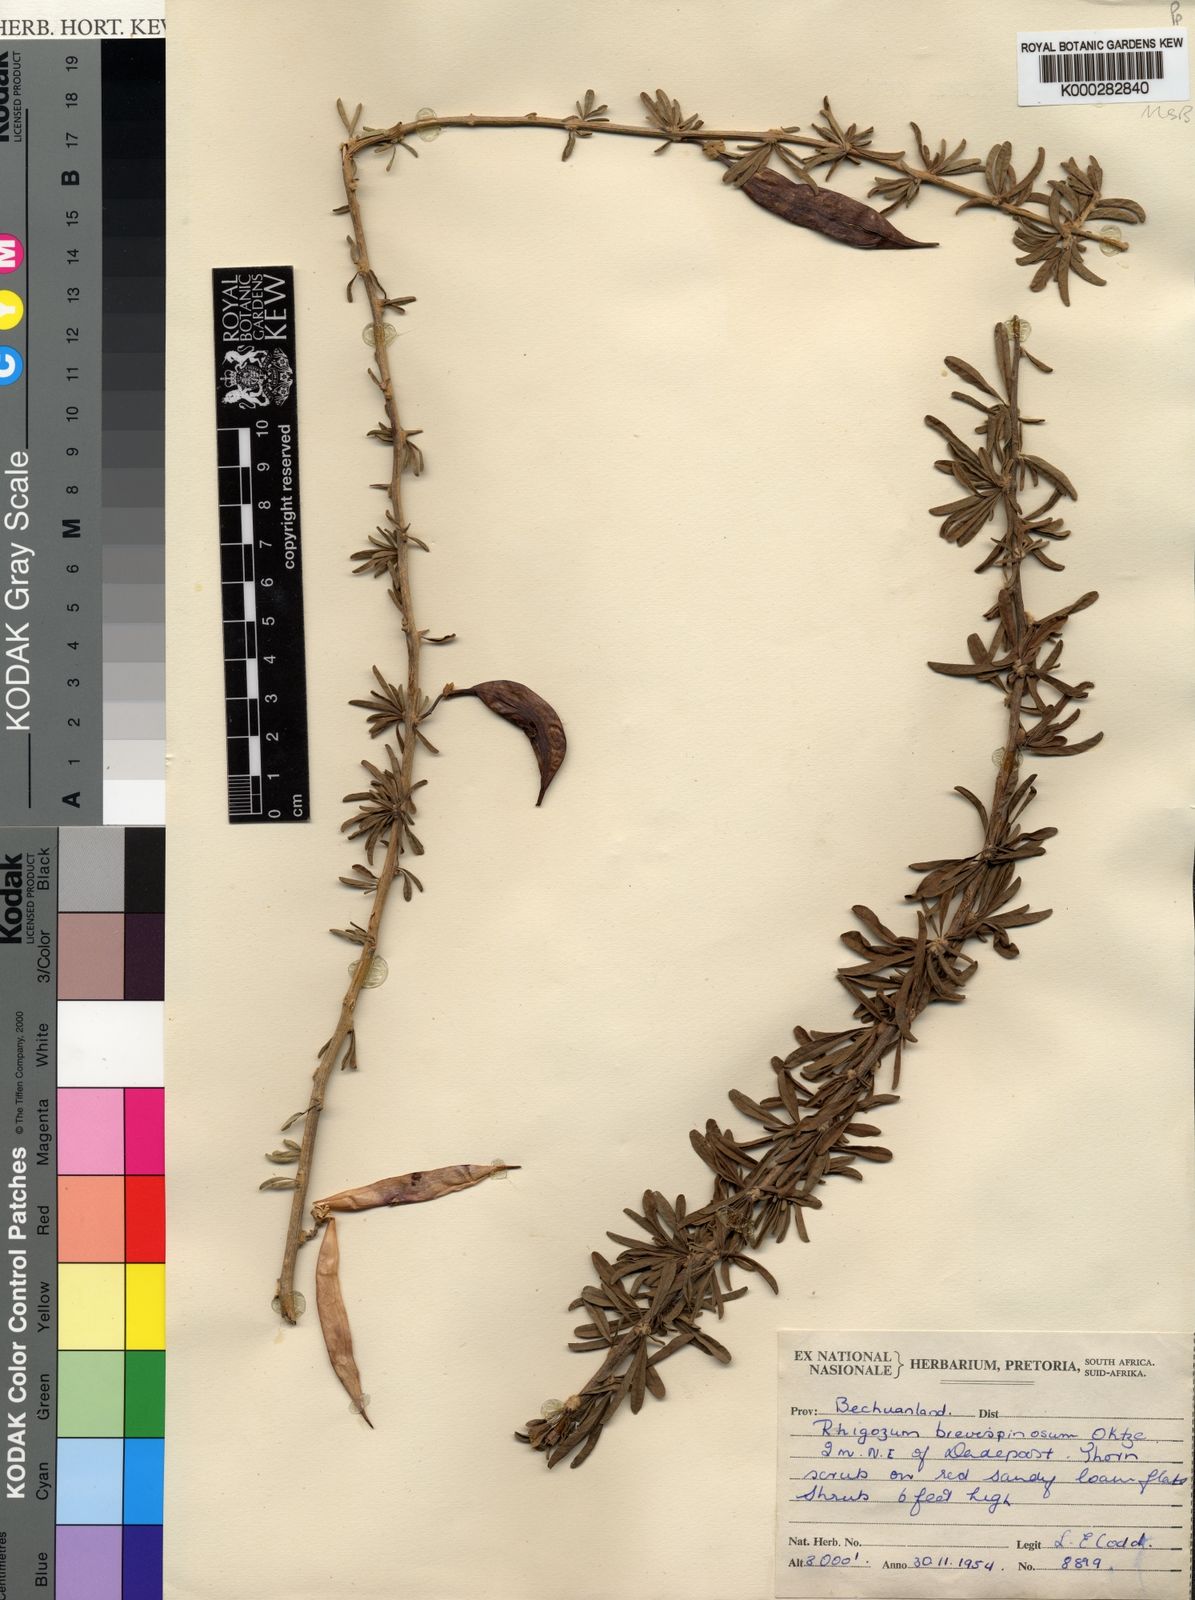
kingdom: Plantae
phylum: Tracheophyta
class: Magnoliopsida
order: Lamiales
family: Bignoniaceae
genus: Rhigozum
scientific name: Rhigozum brevispinosum
